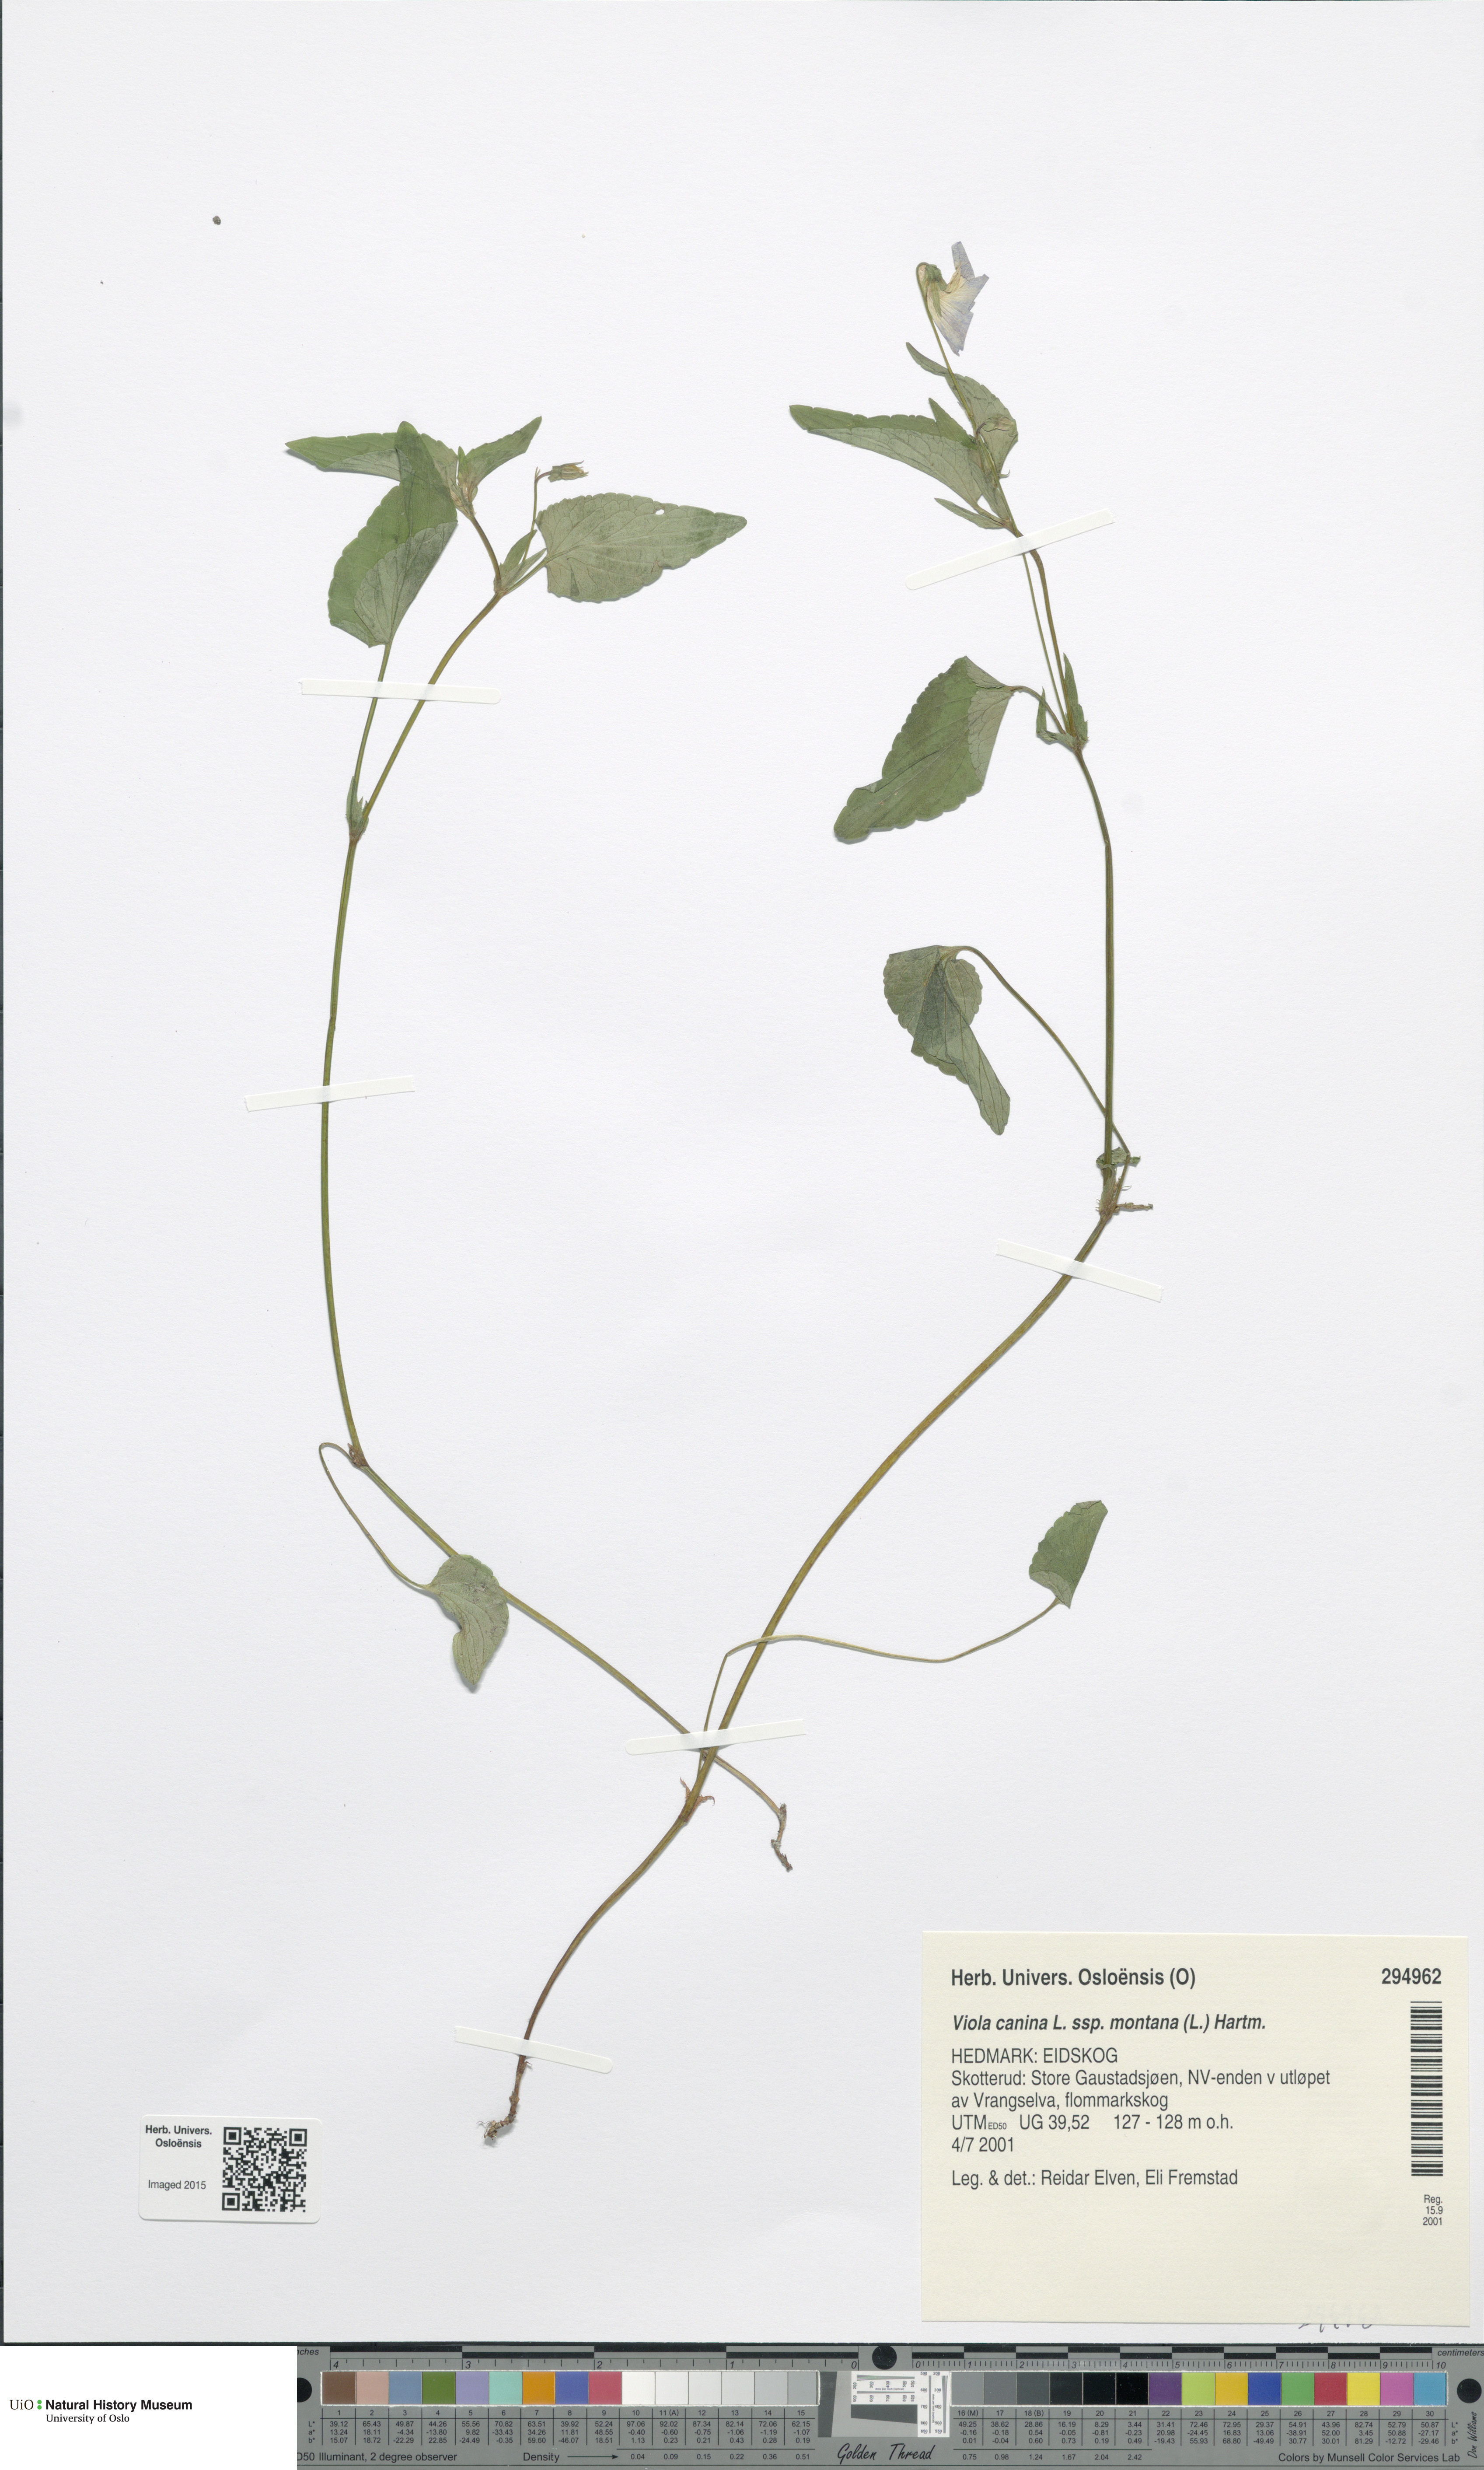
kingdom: Plantae
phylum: Tracheophyta
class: Magnoliopsida
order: Malpighiales
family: Violaceae
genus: Viola
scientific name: Viola ruppii
